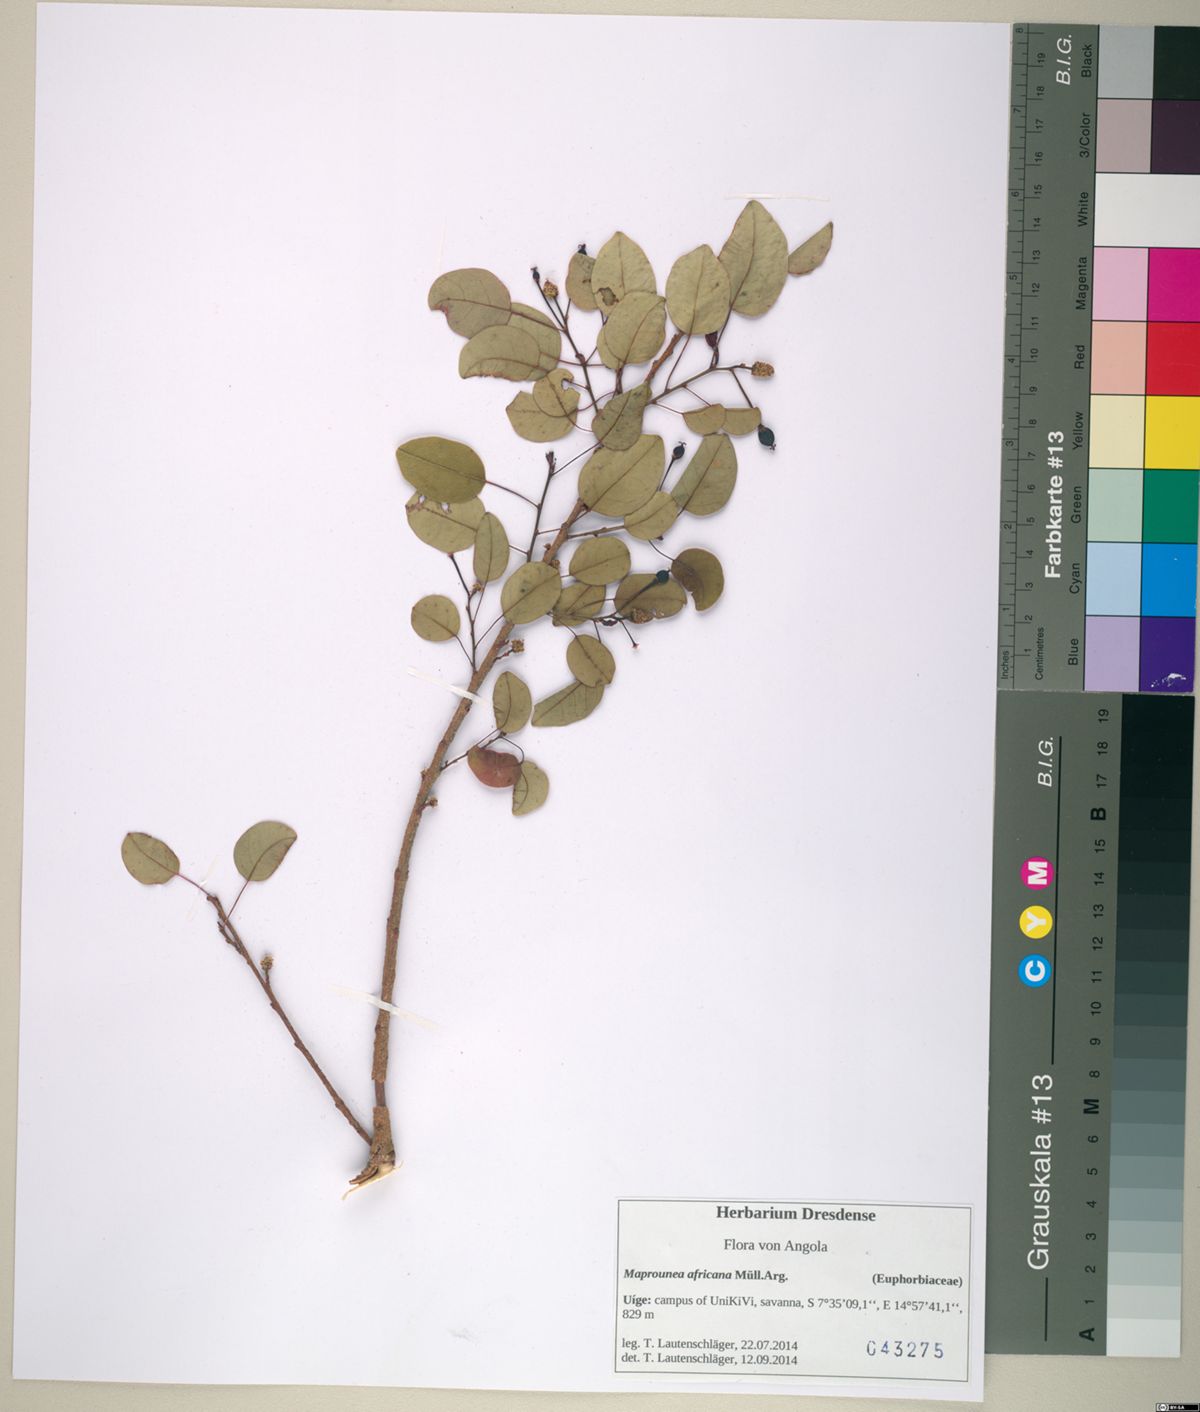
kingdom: Plantae
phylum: Tracheophyta
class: Magnoliopsida
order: Malpighiales
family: Euphorbiaceae
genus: Maprounea
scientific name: Maprounea africana
